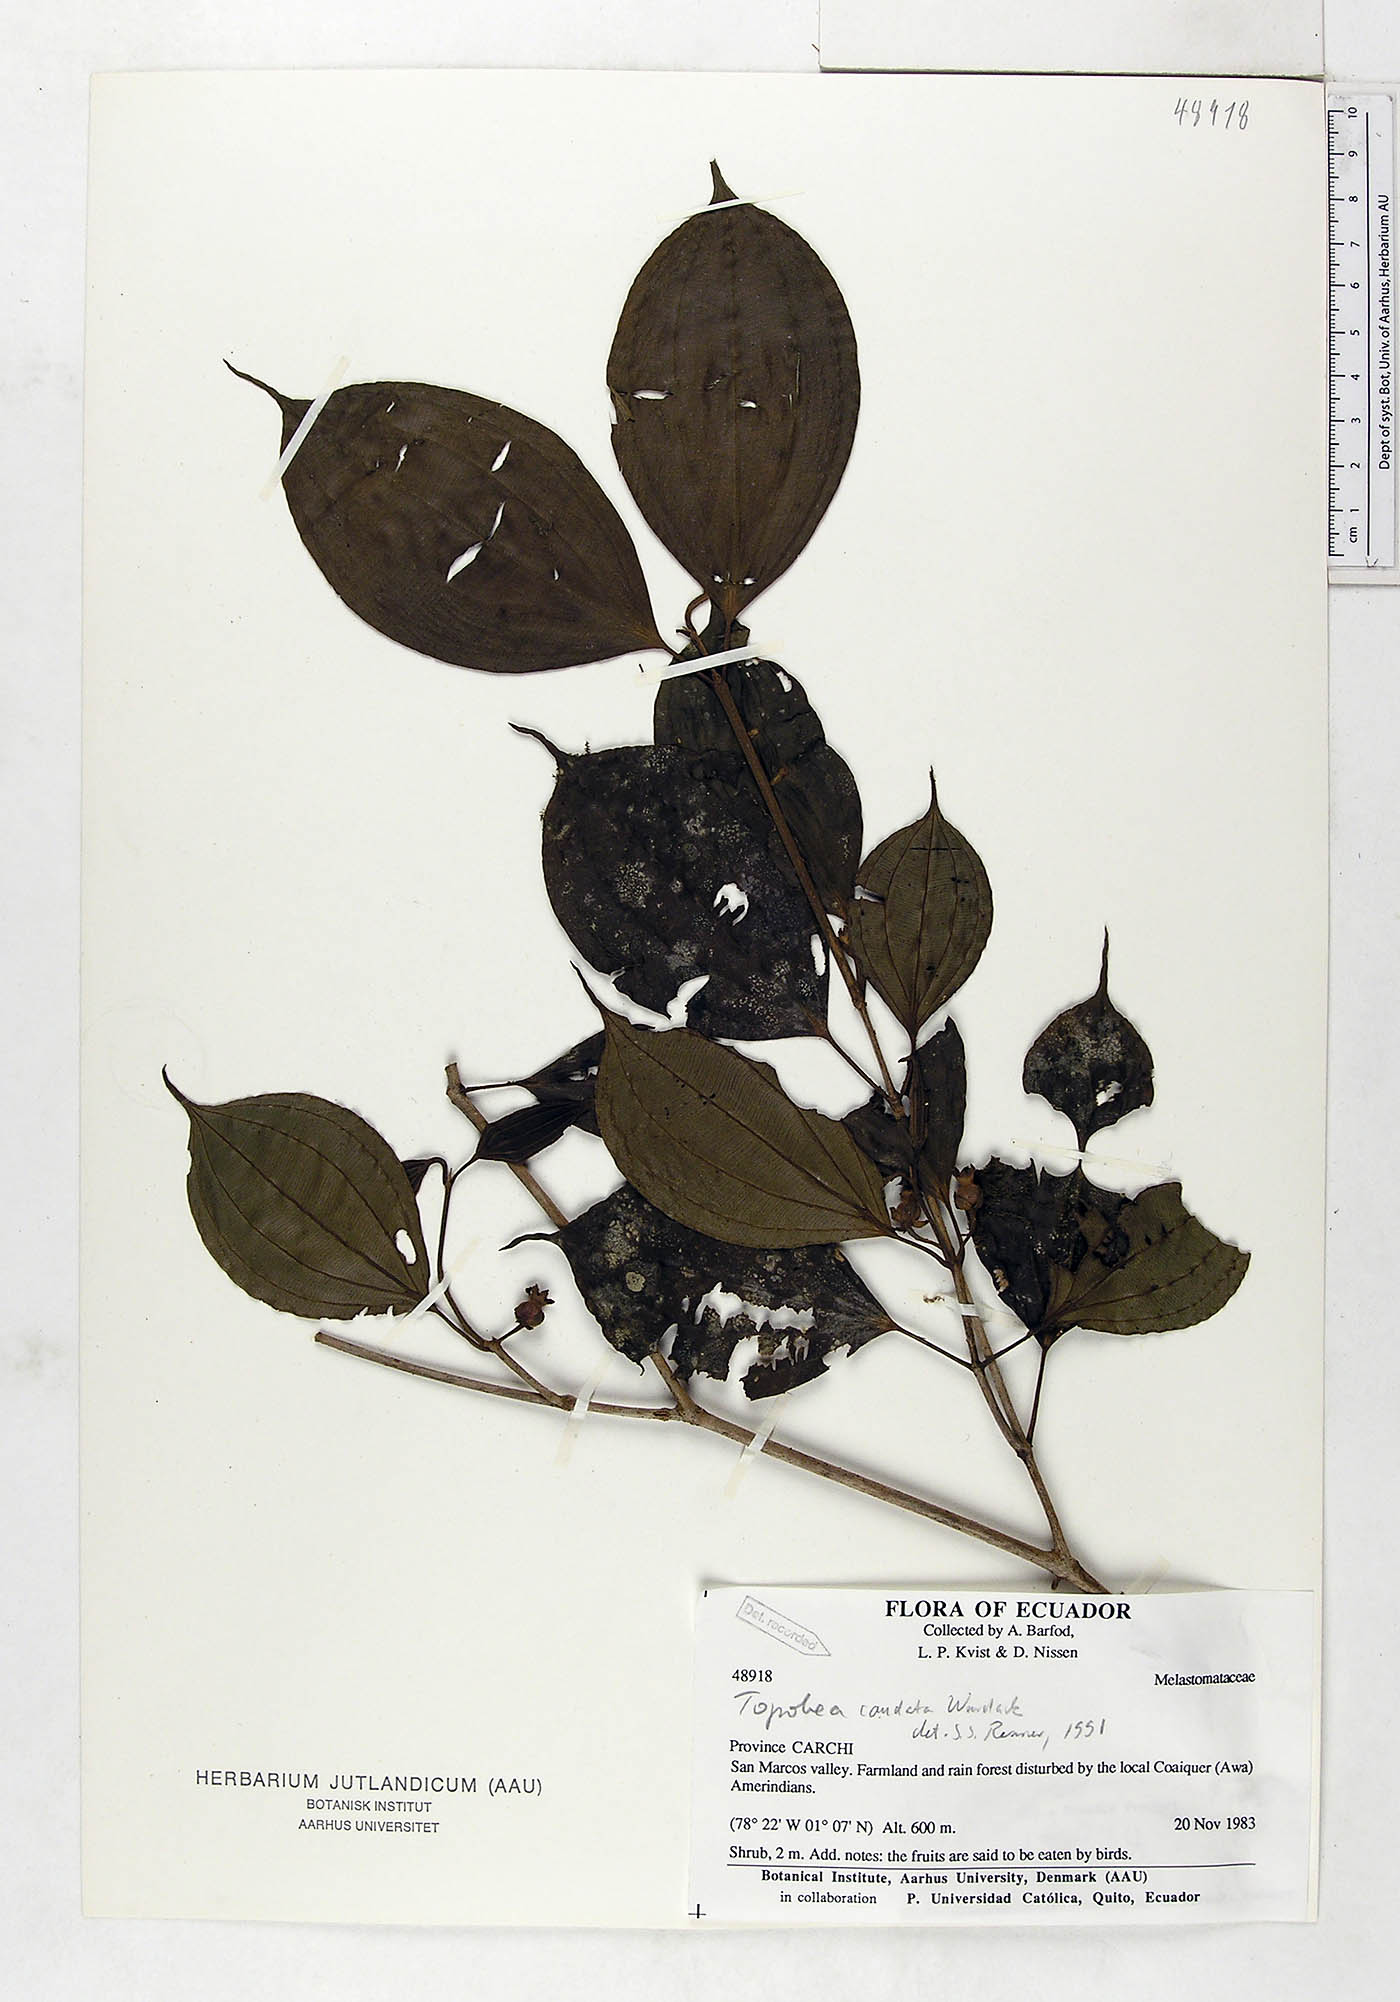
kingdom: Plantae
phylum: Tracheophyta
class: Magnoliopsida
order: Myrtales
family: Melastomataceae
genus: Blakea
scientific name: Blakea horologica
